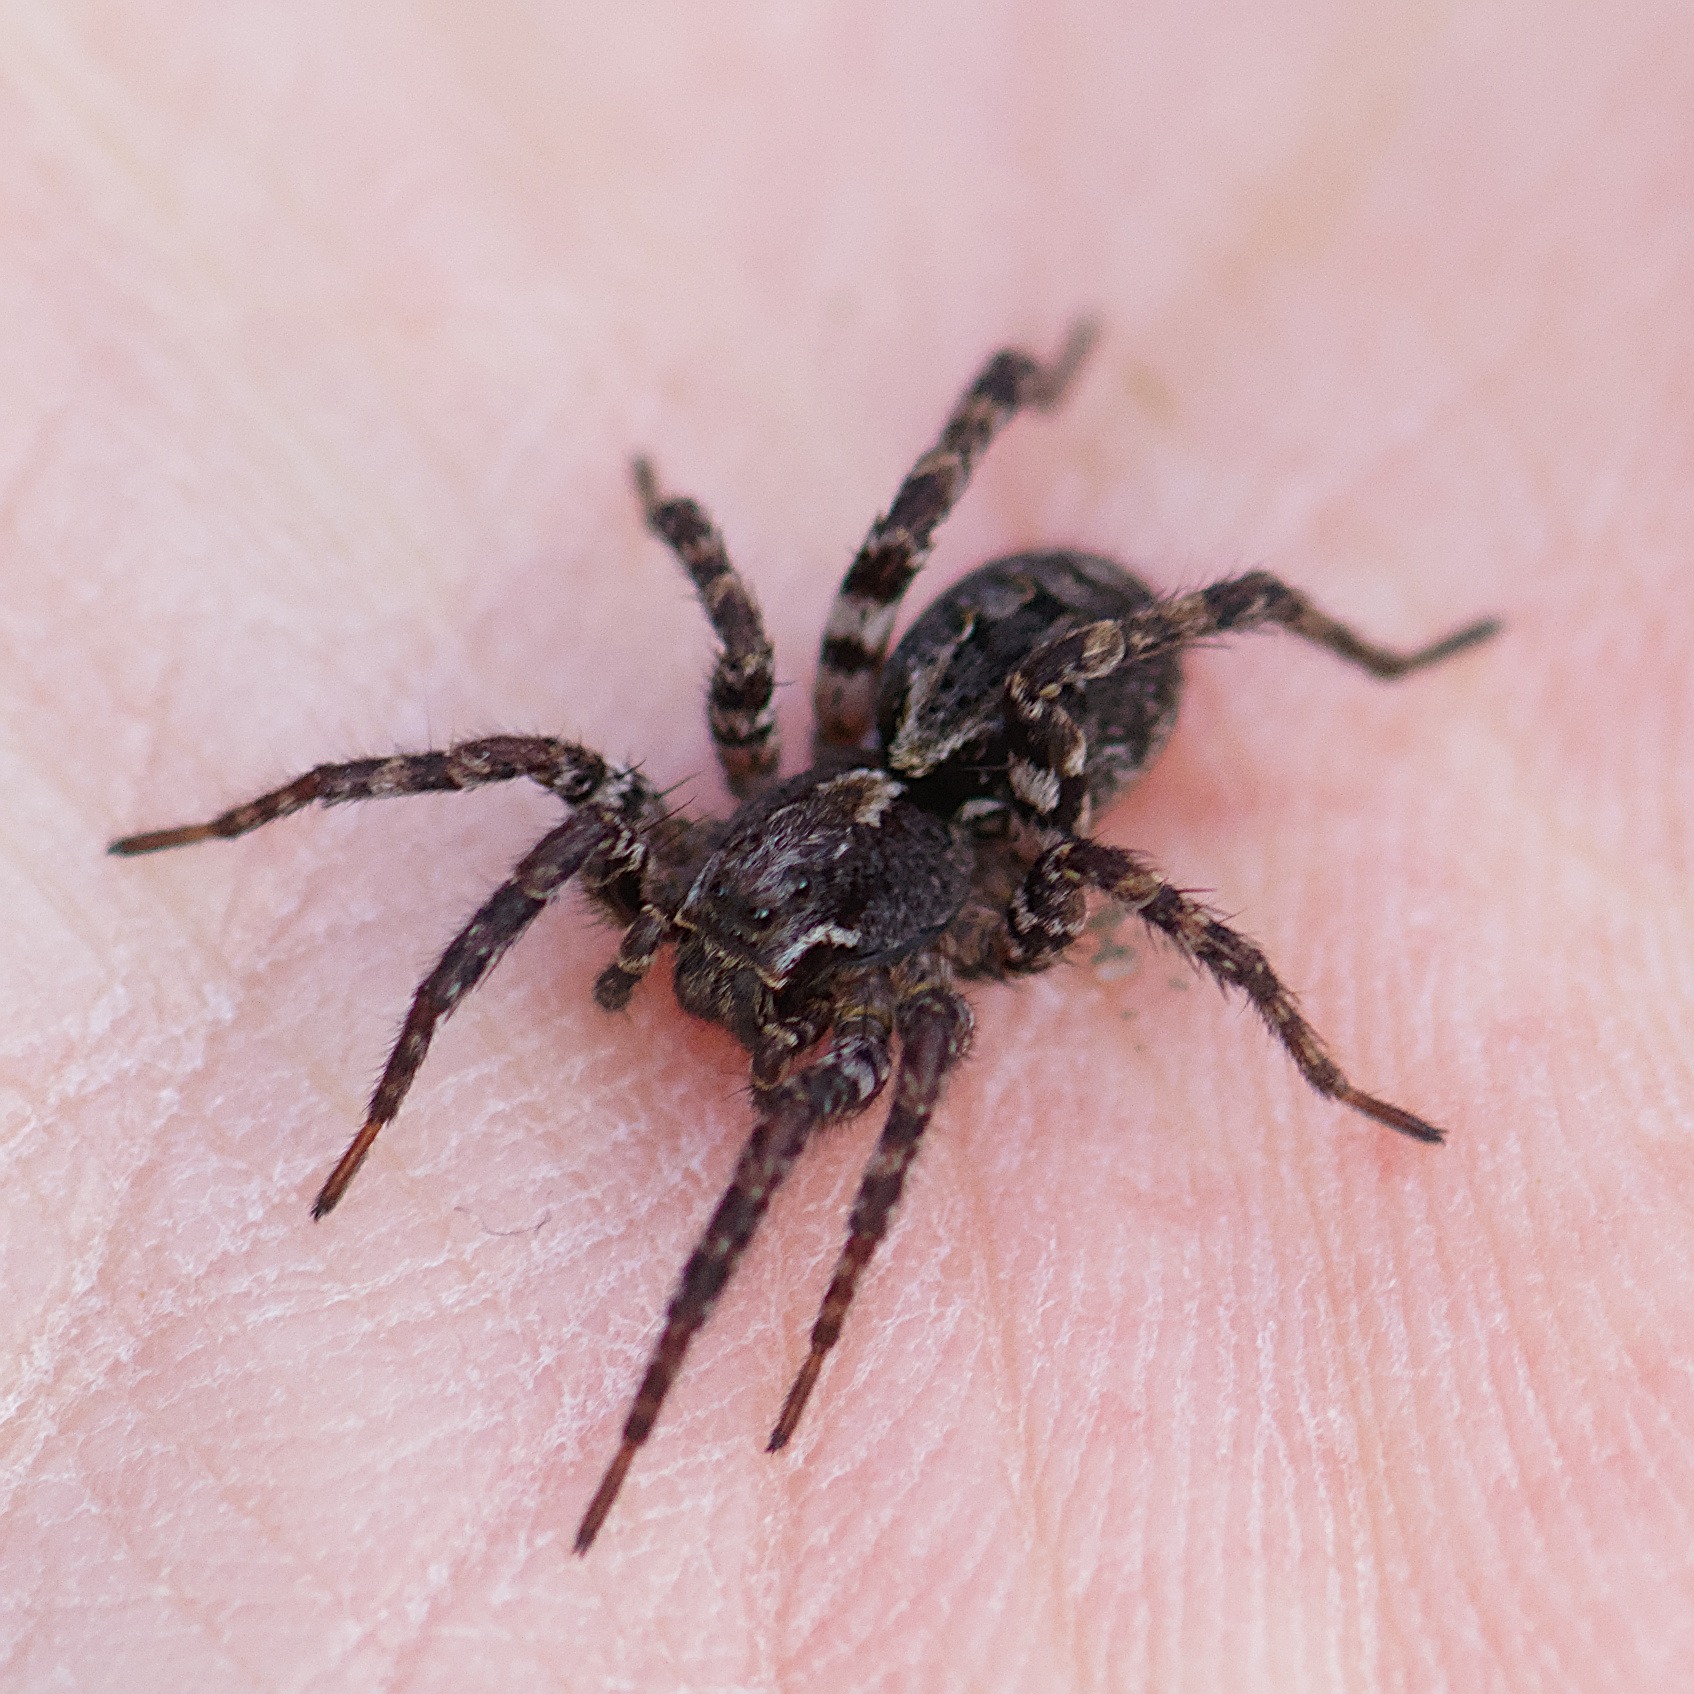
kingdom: Animalia
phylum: Arthropoda
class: Arachnida
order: Araneae
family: Lycosidae
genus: Alopecosa
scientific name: Alopecosa barbipes
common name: Klitkæmpejæger
